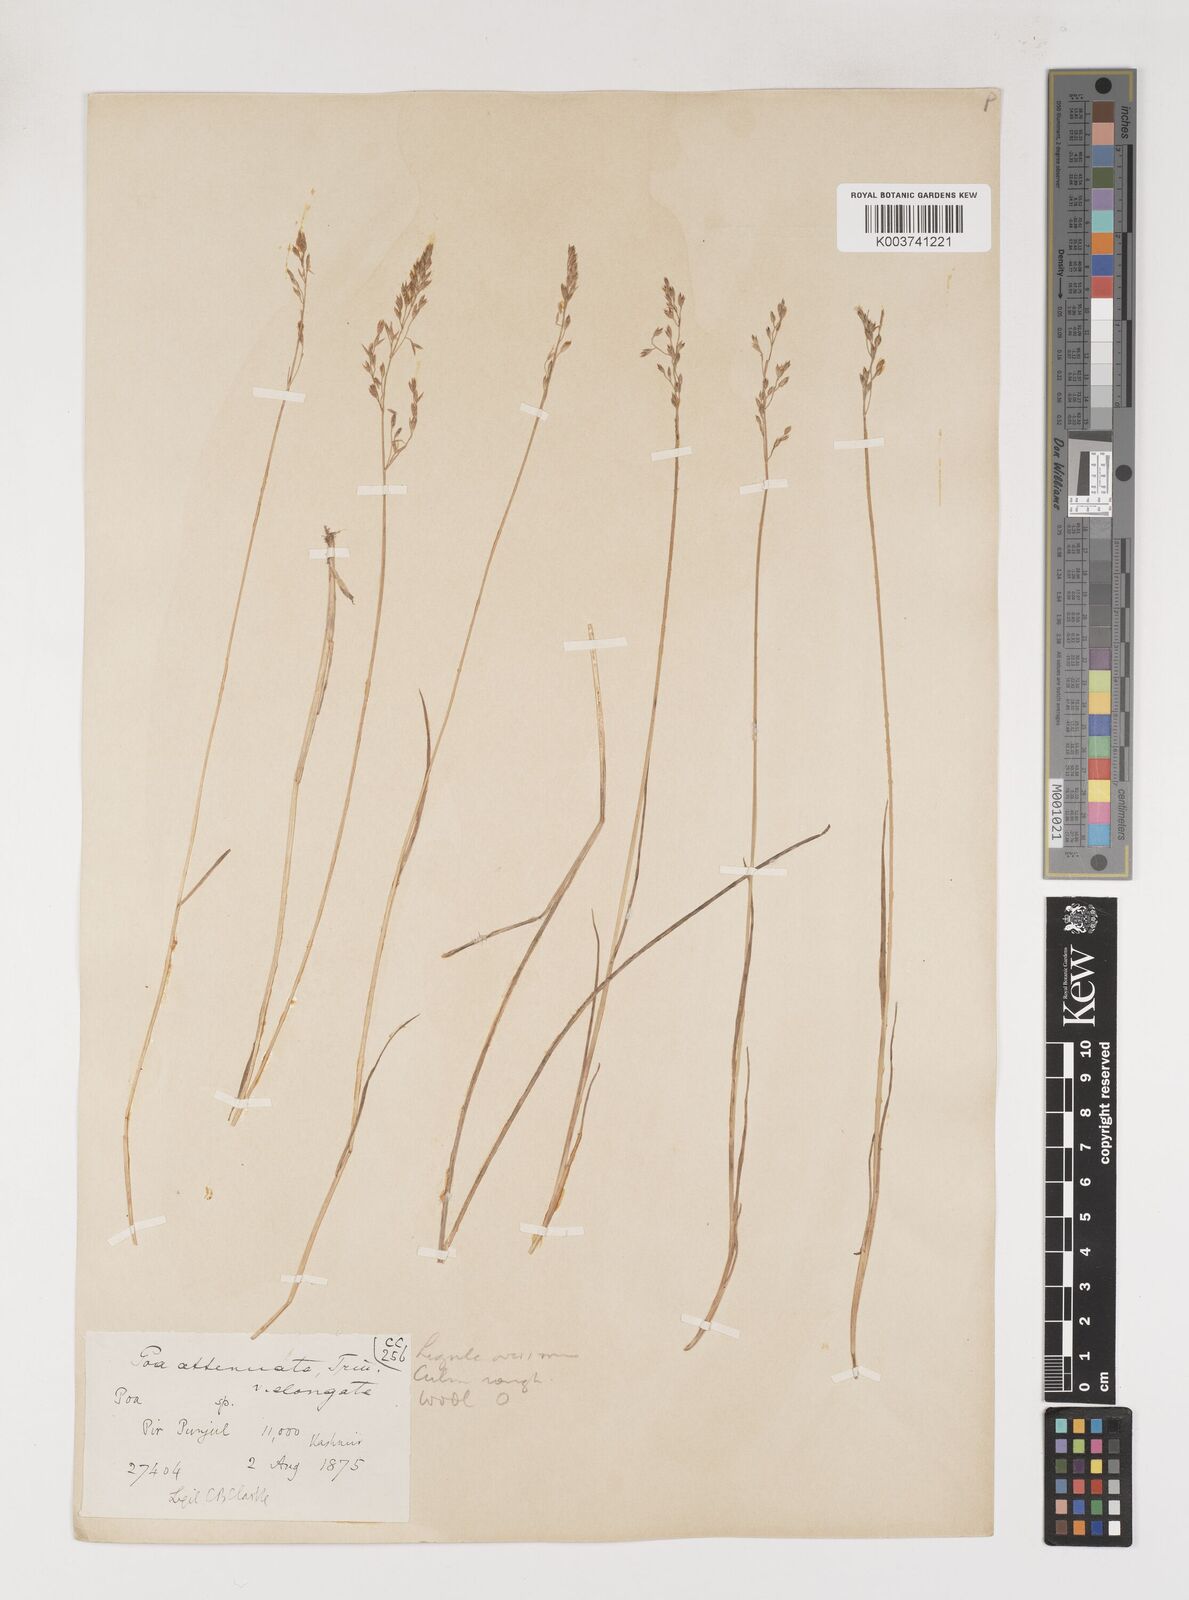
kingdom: Plantae
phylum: Tracheophyta
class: Liliopsida
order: Poales
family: Poaceae
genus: Poa
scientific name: Poa araratica
